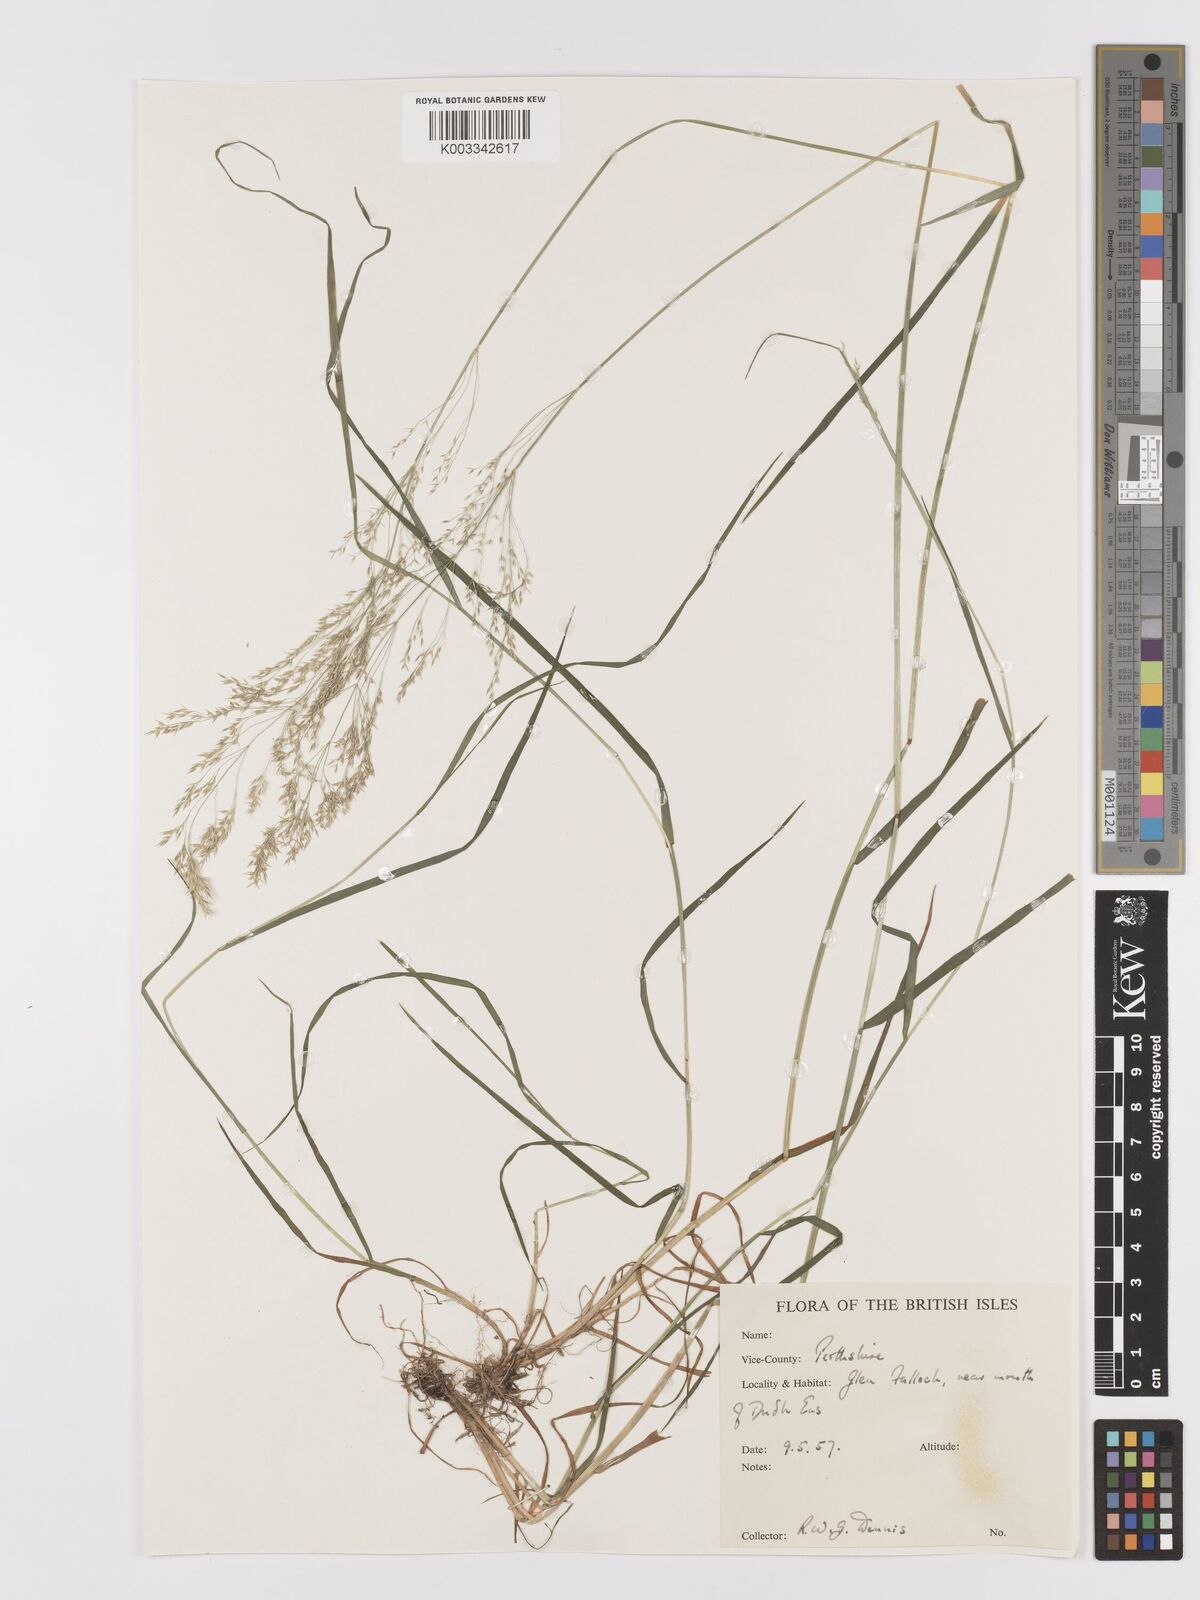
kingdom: Plantae
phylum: Tracheophyta
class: Liliopsida
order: Poales
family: Poaceae
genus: Agrostis
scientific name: Agrostis
